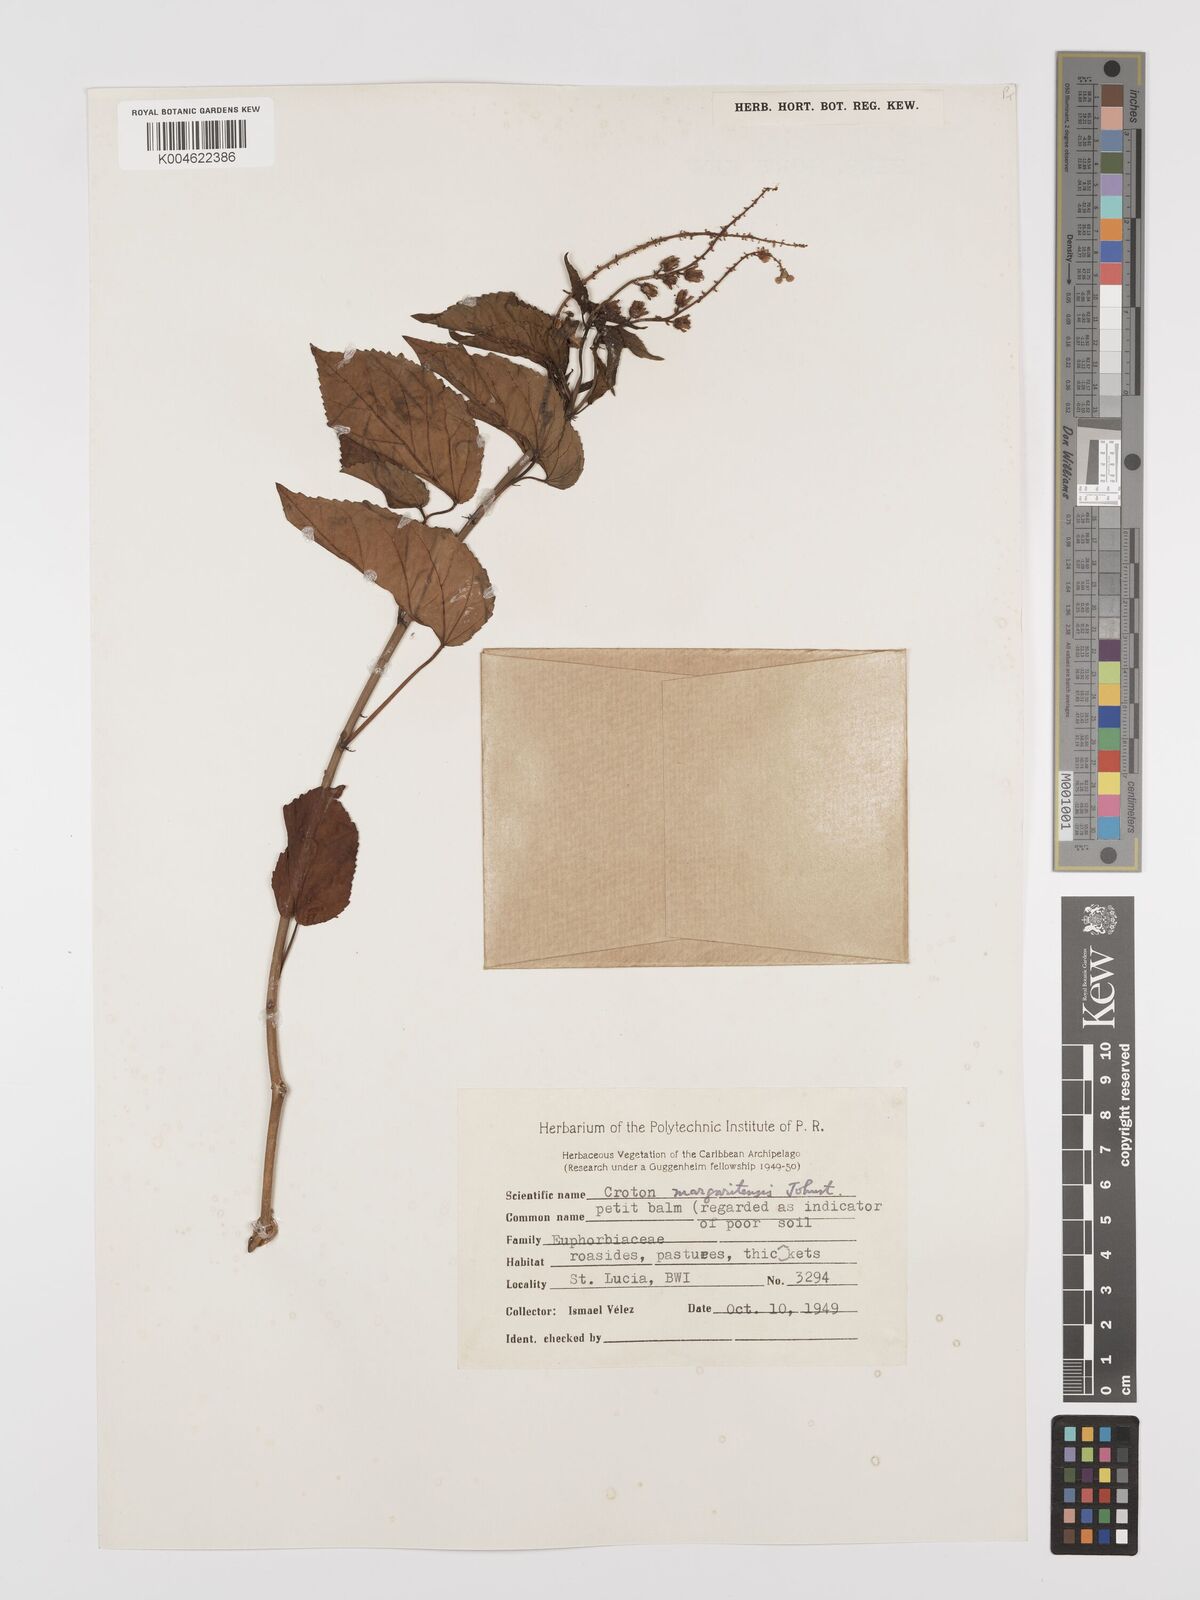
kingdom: Plantae
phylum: Tracheophyta
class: Magnoliopsida
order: Malpighiales
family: Euphorbiaceae
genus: Croton
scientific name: Croton hircinus
